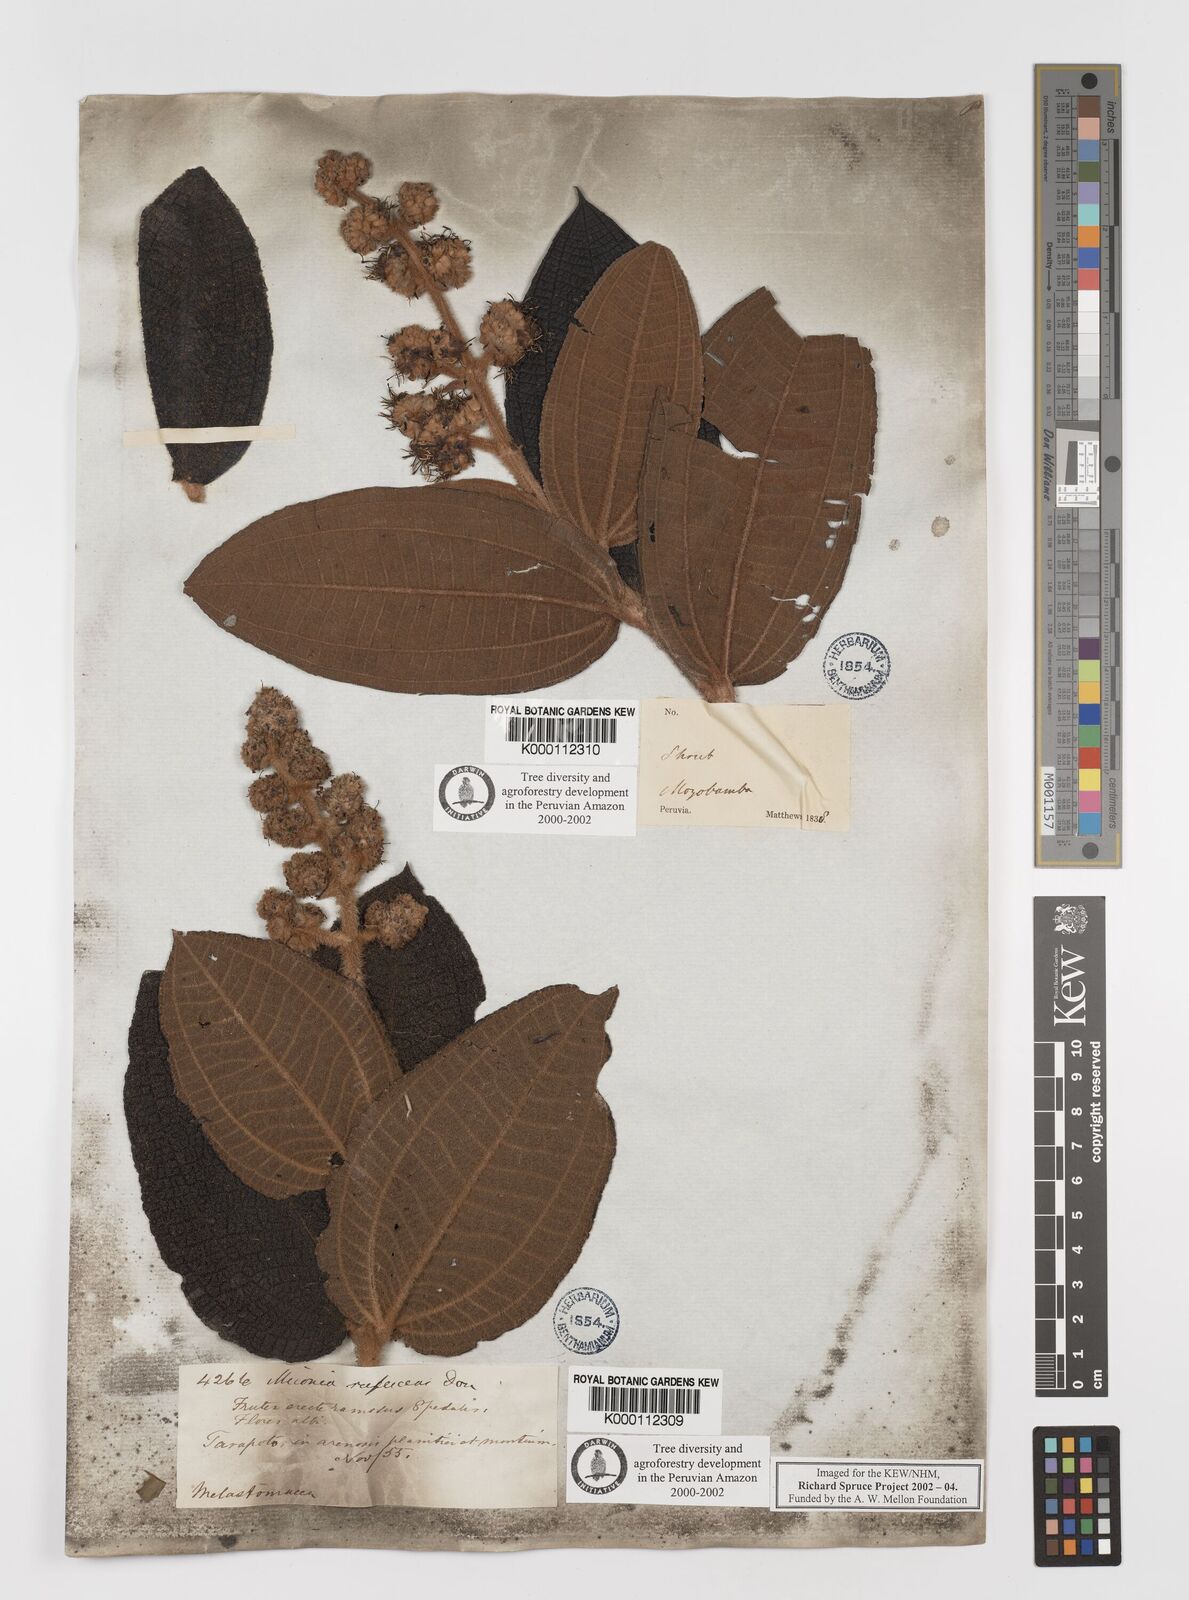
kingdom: Plantae
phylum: Tracheophyta
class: Magnoliopsida
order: Myrtales
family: Melastomataceae
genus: Miconia
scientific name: Miconia rufescens
